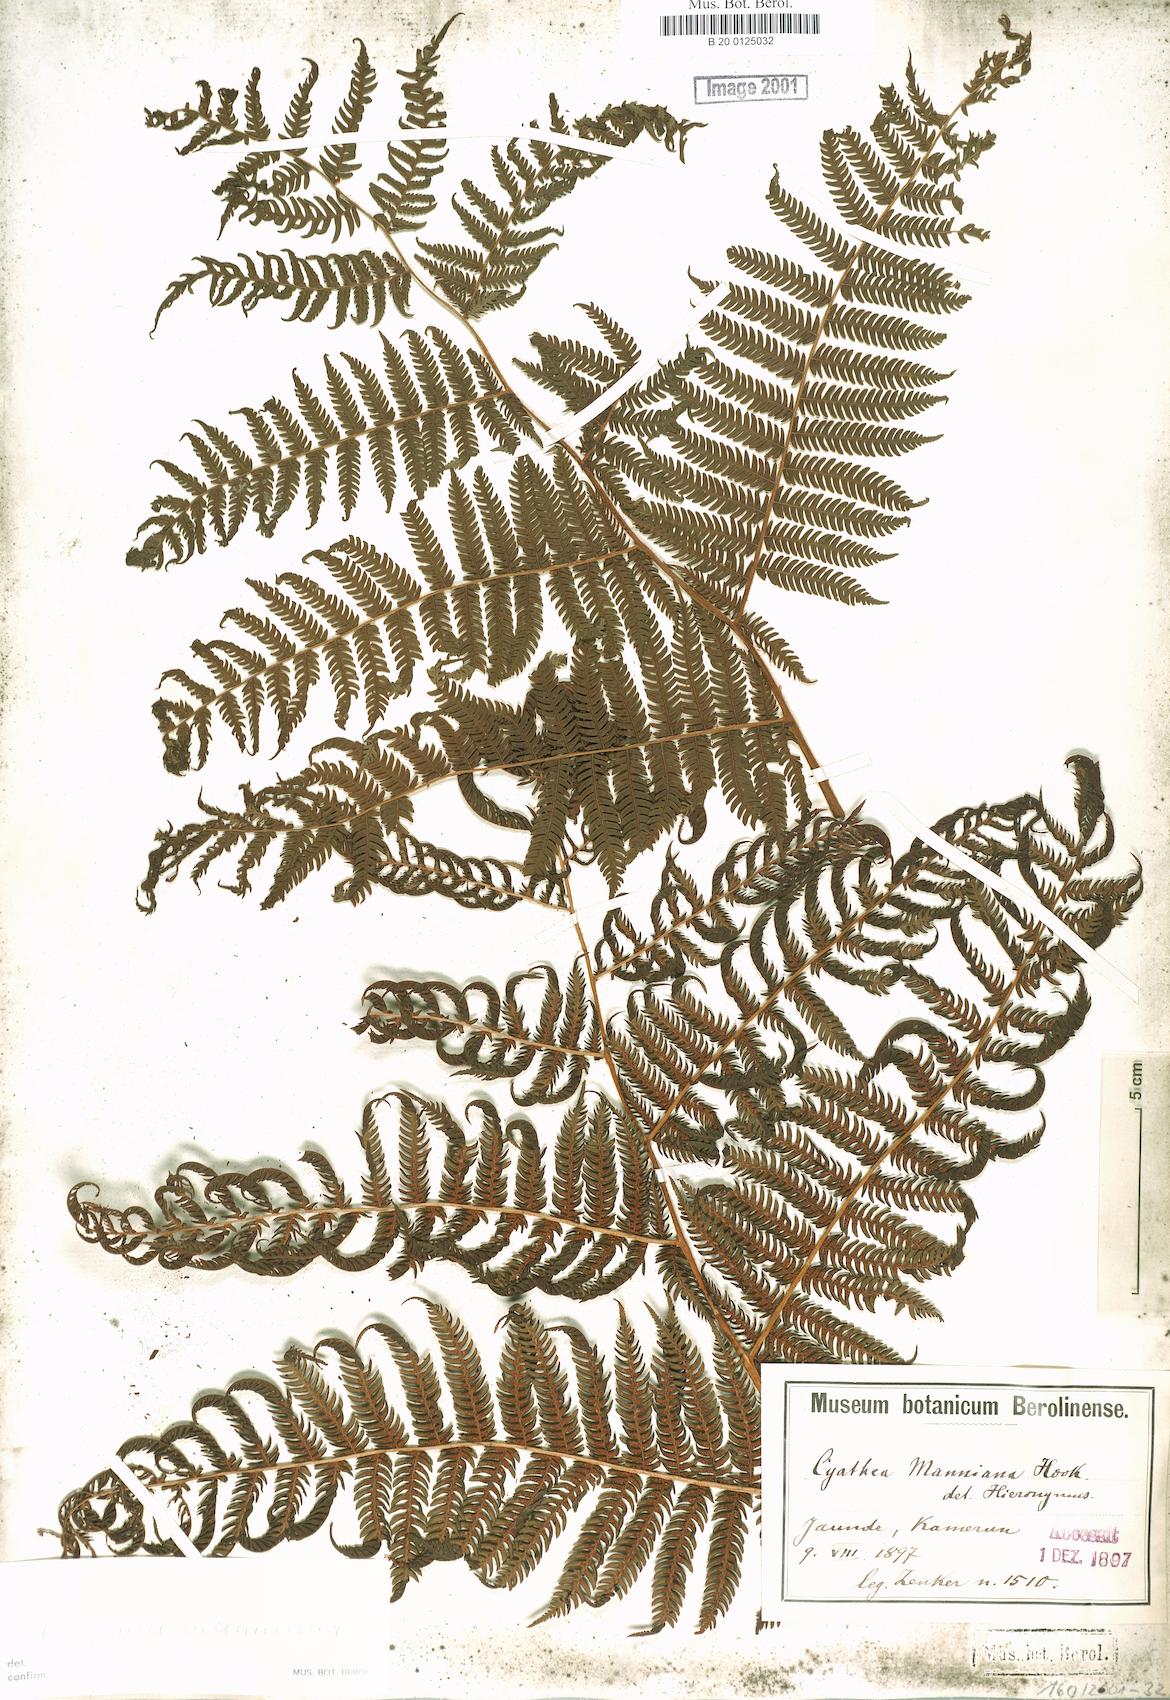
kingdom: Plantae
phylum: Tracheophyta
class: Polypodiopsida
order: Cyatheales
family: Cyatheaceae
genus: Alsophila
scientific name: Alsophila manniana
